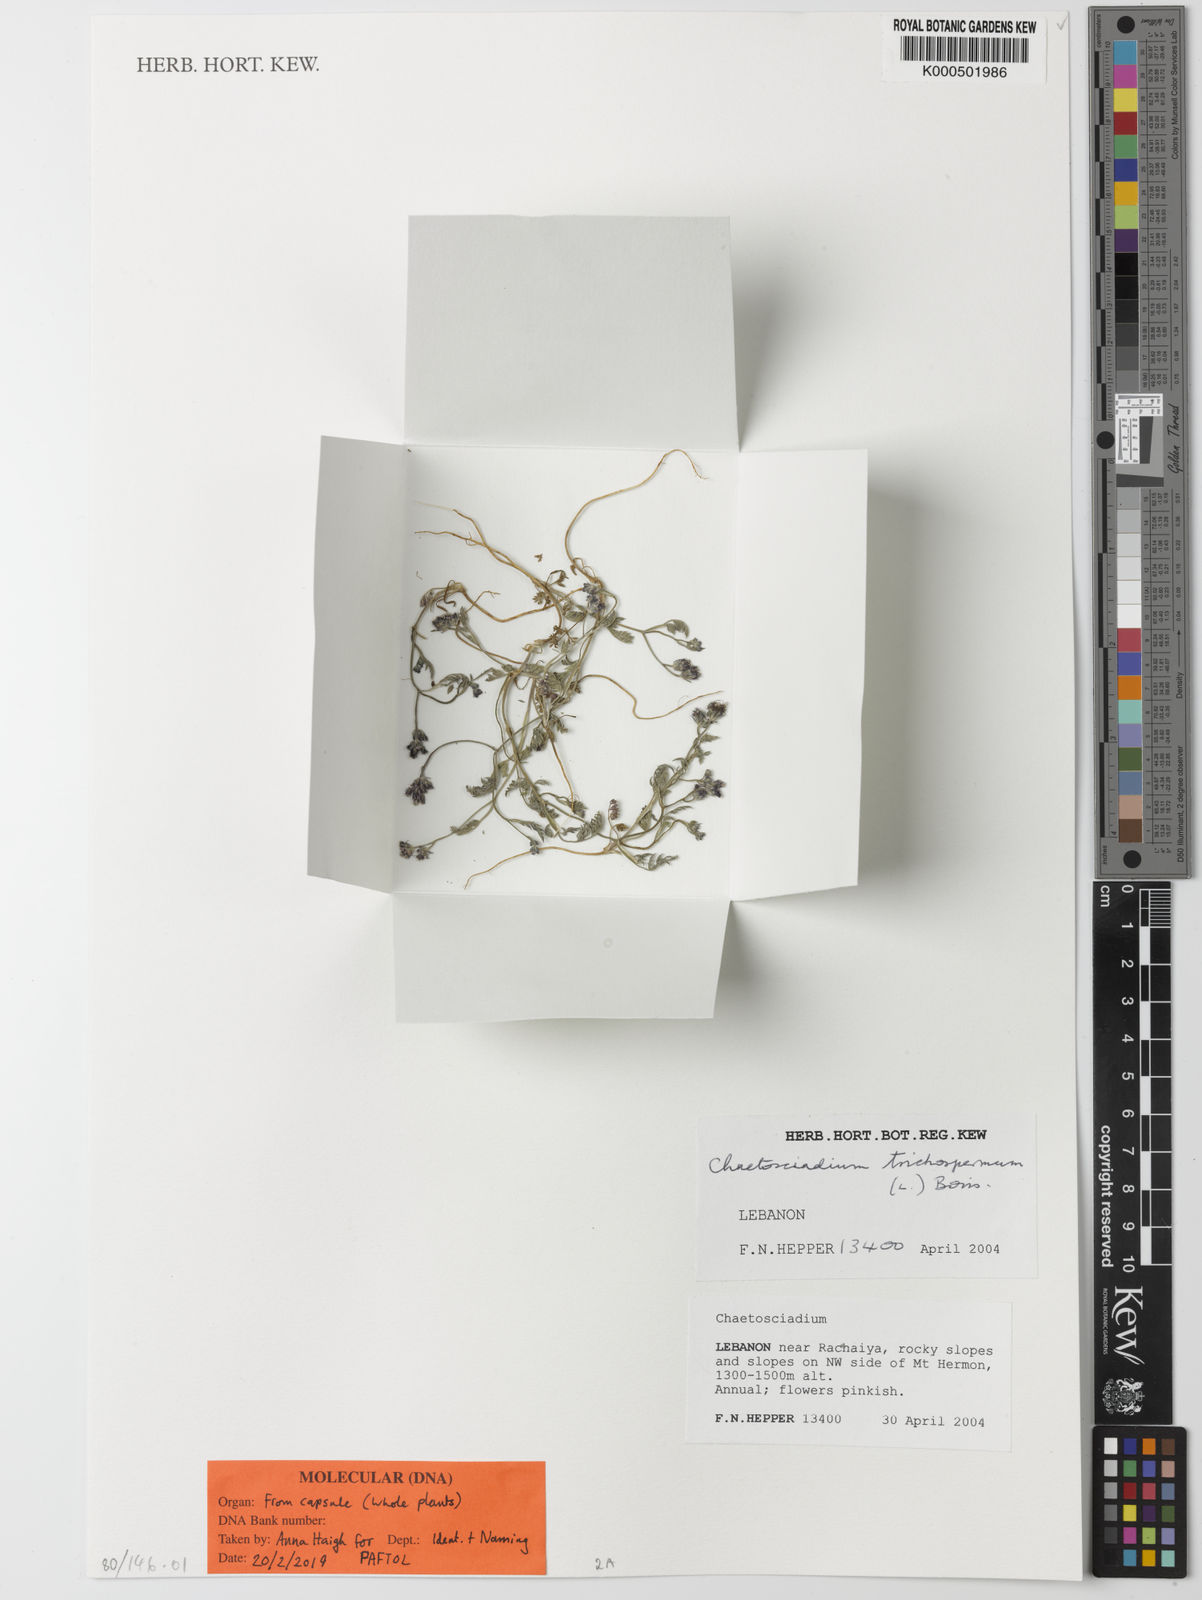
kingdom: Plantae
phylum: Tracheophyta
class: Magnoliopsida
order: Apiales
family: Apiaceae
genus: Chaetosciadium
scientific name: Chaetosciadium
